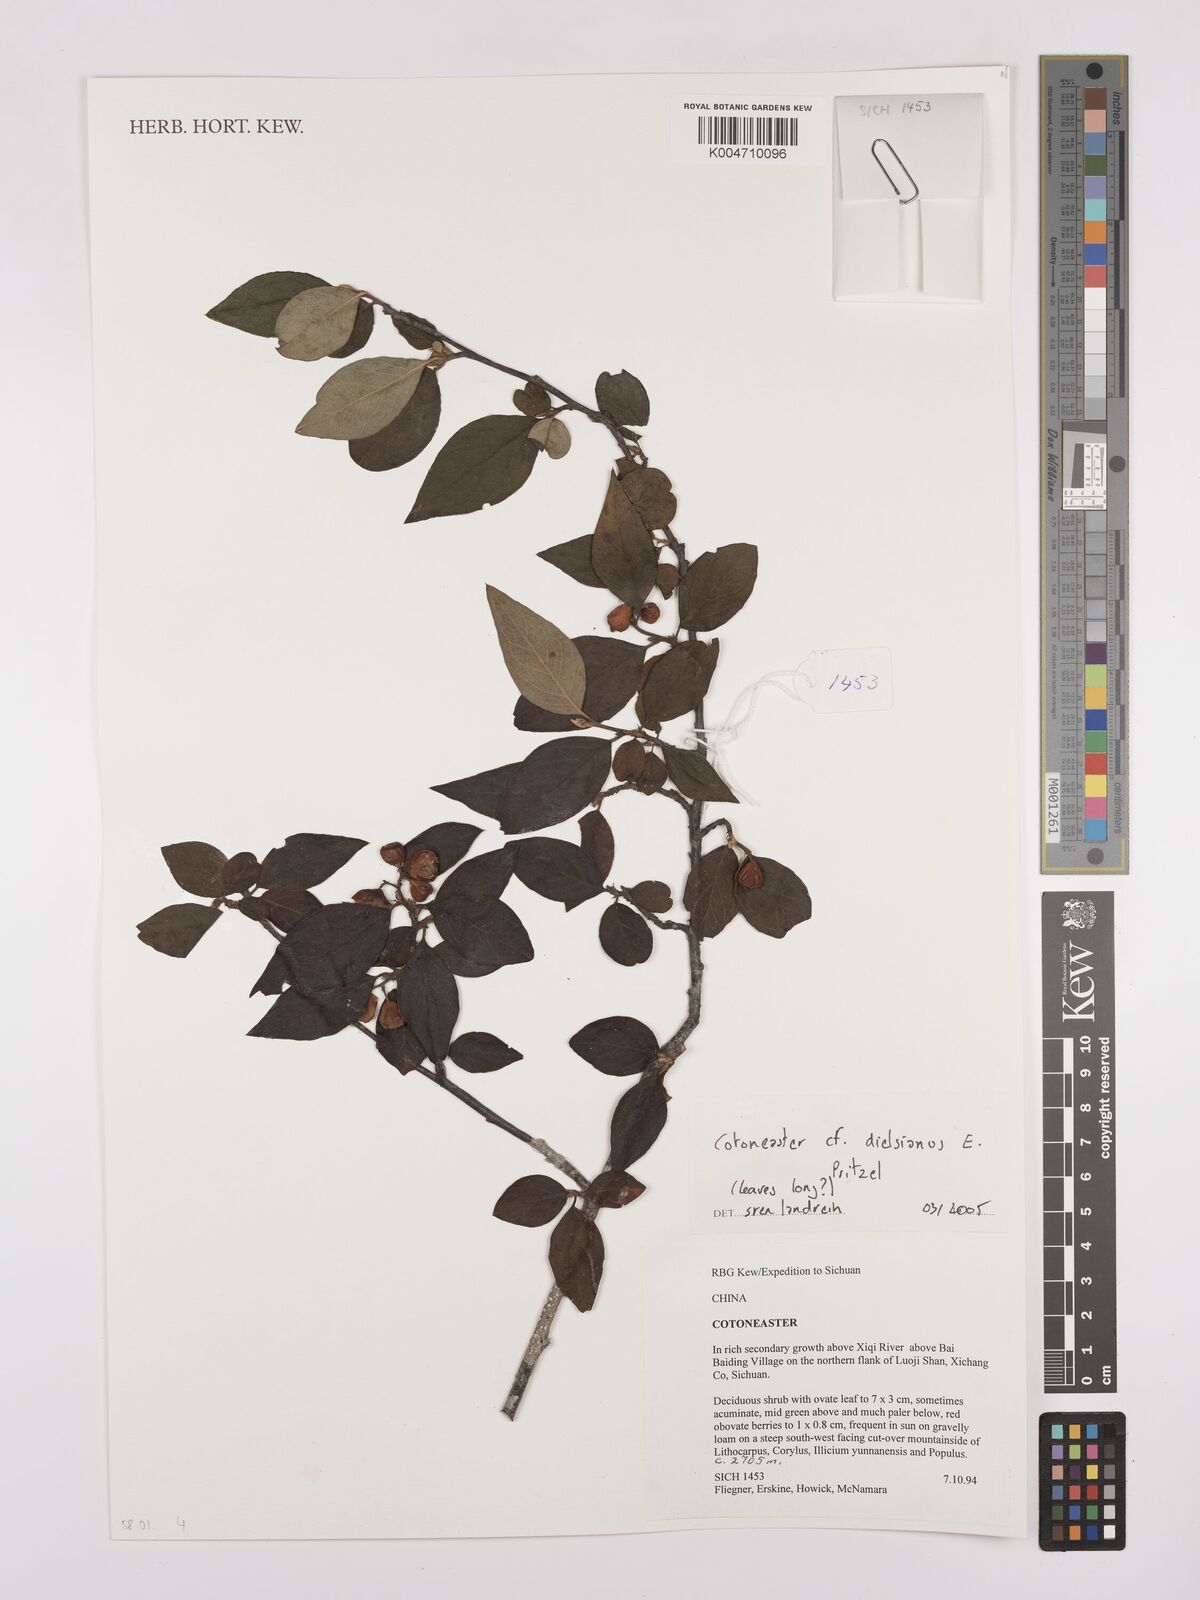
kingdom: Plantae
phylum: Tracheophyta
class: Magnoliopsida
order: Rosales
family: Rosaceae
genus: Cotoneaster
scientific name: Cotoneaster dielsianus
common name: Diels's cotoneaster
